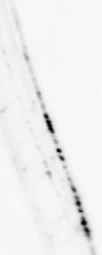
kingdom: Animalia
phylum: Chordata
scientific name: Chordata
